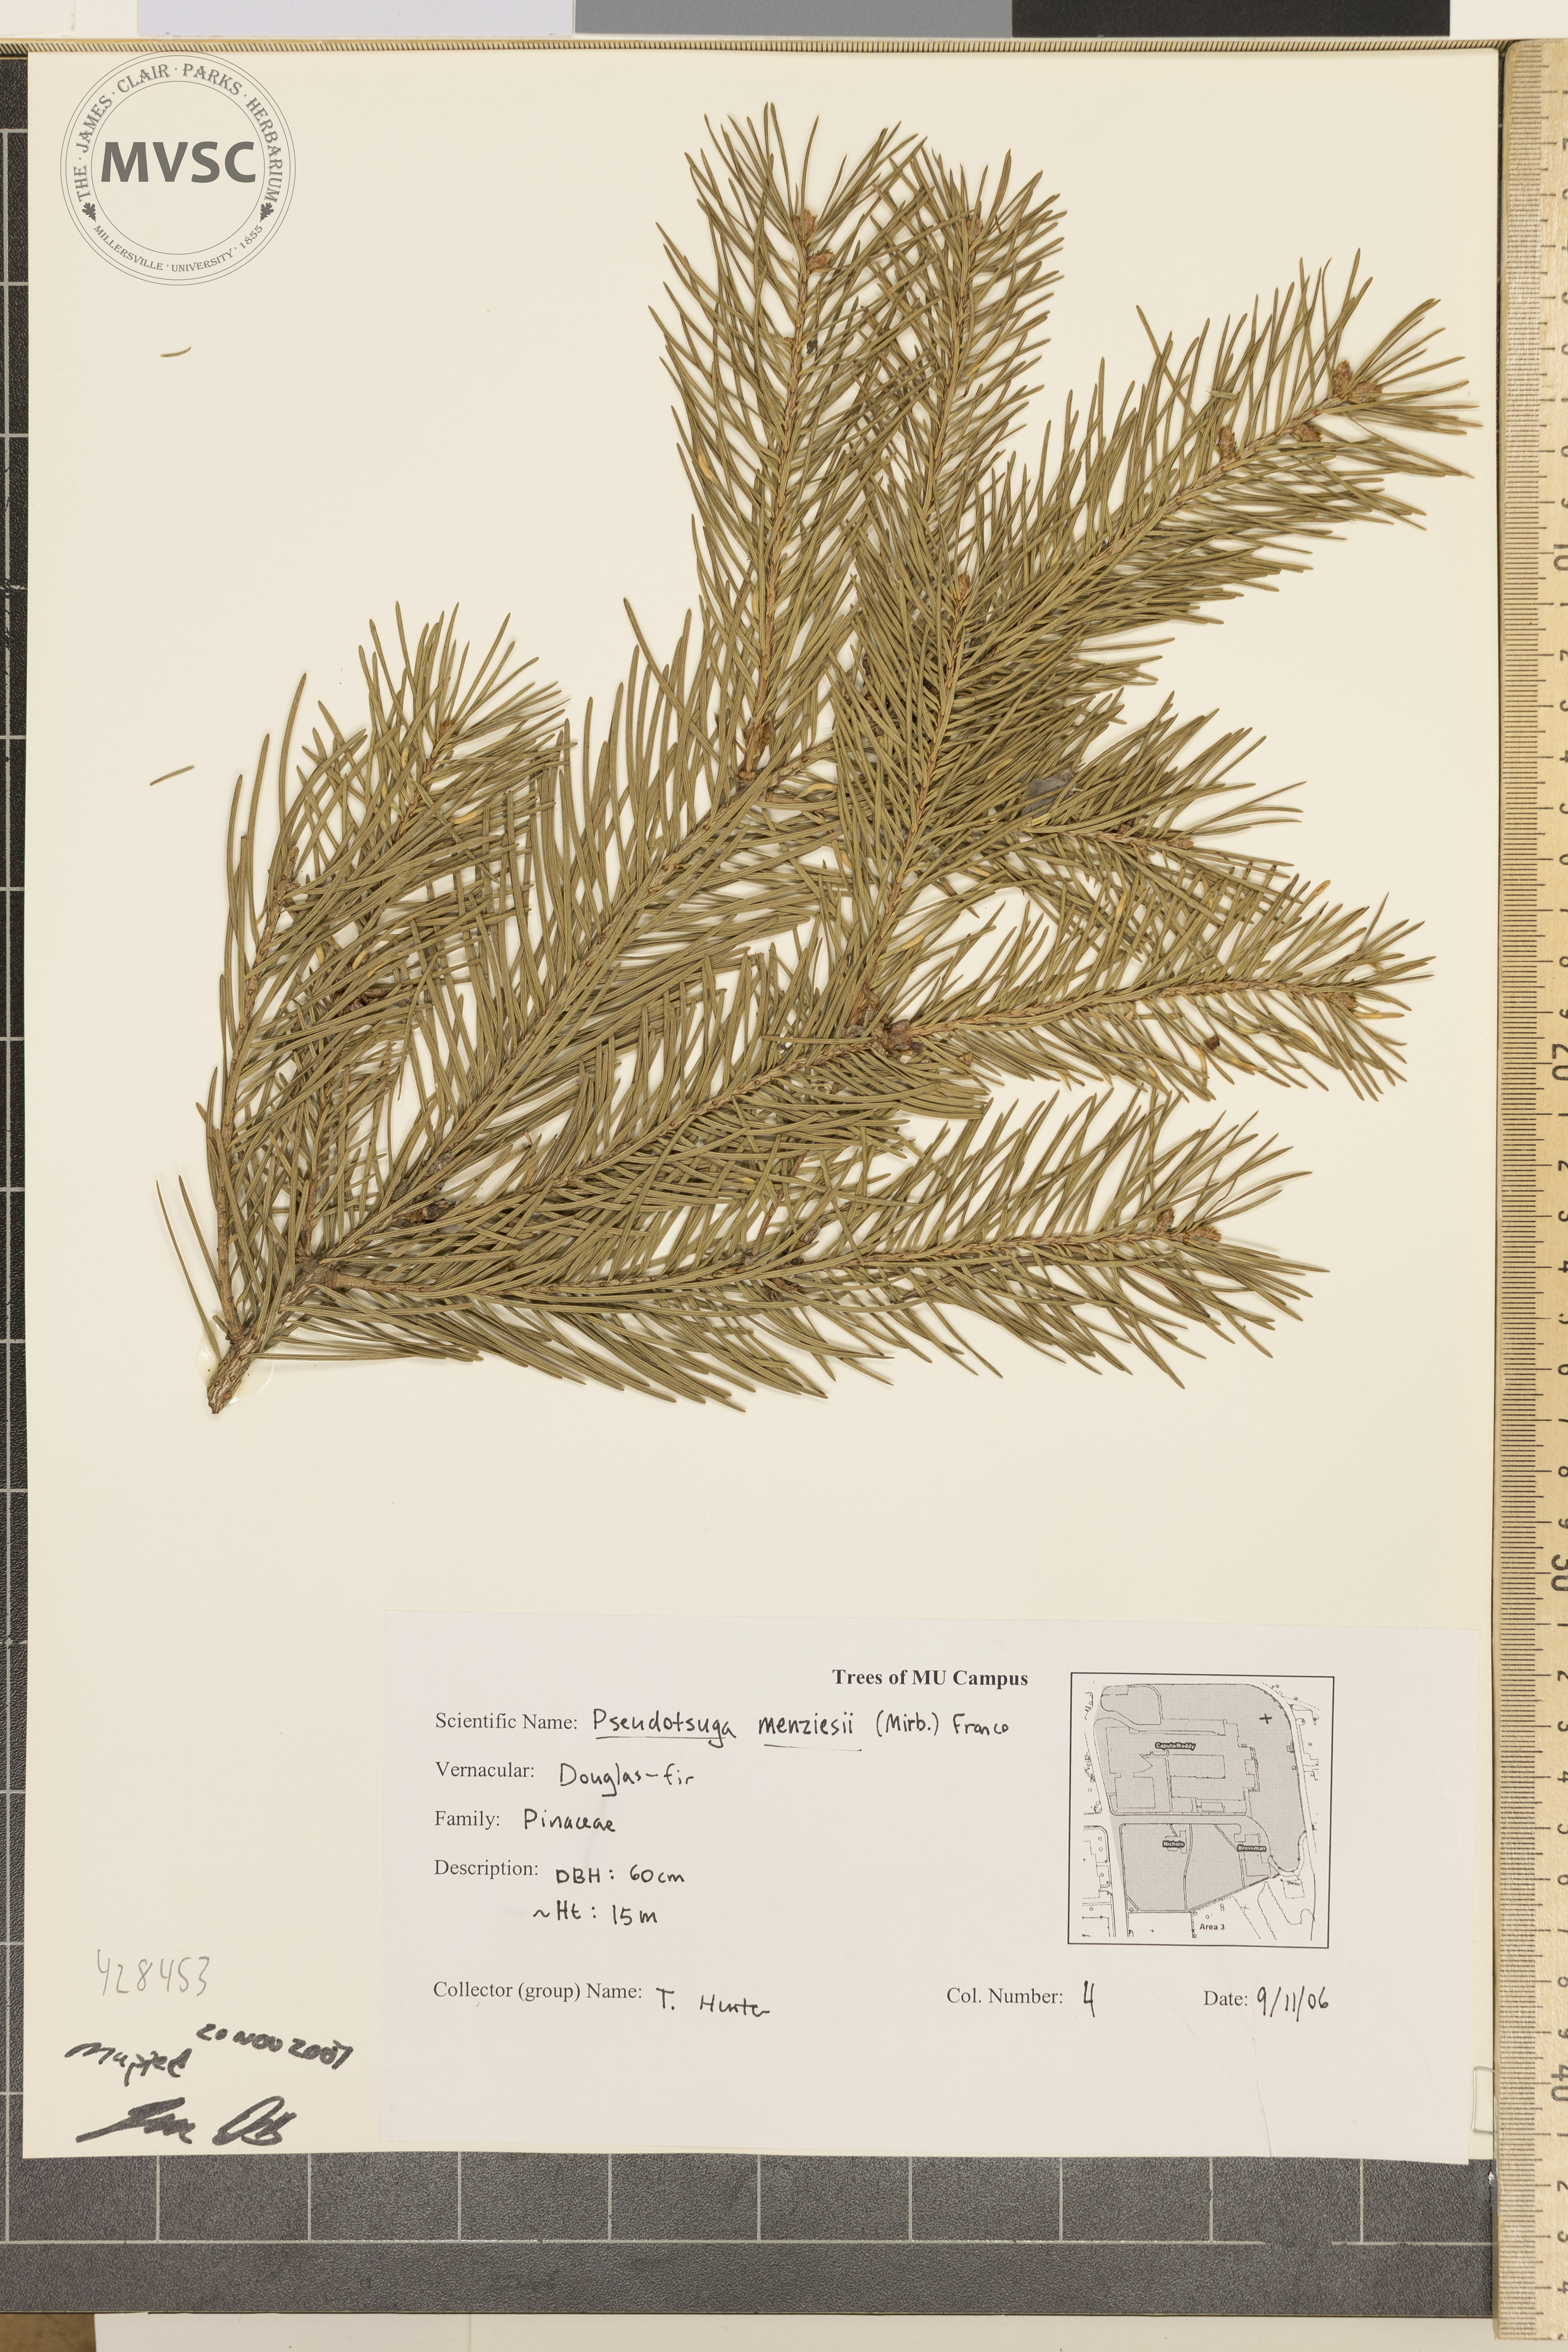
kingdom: Plantae
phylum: Tracheophyta
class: Pinopsida
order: Pinales
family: Pinaceae
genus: Pseudotsuga
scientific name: Pseudotsuga menziesii
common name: Douglas Fir
